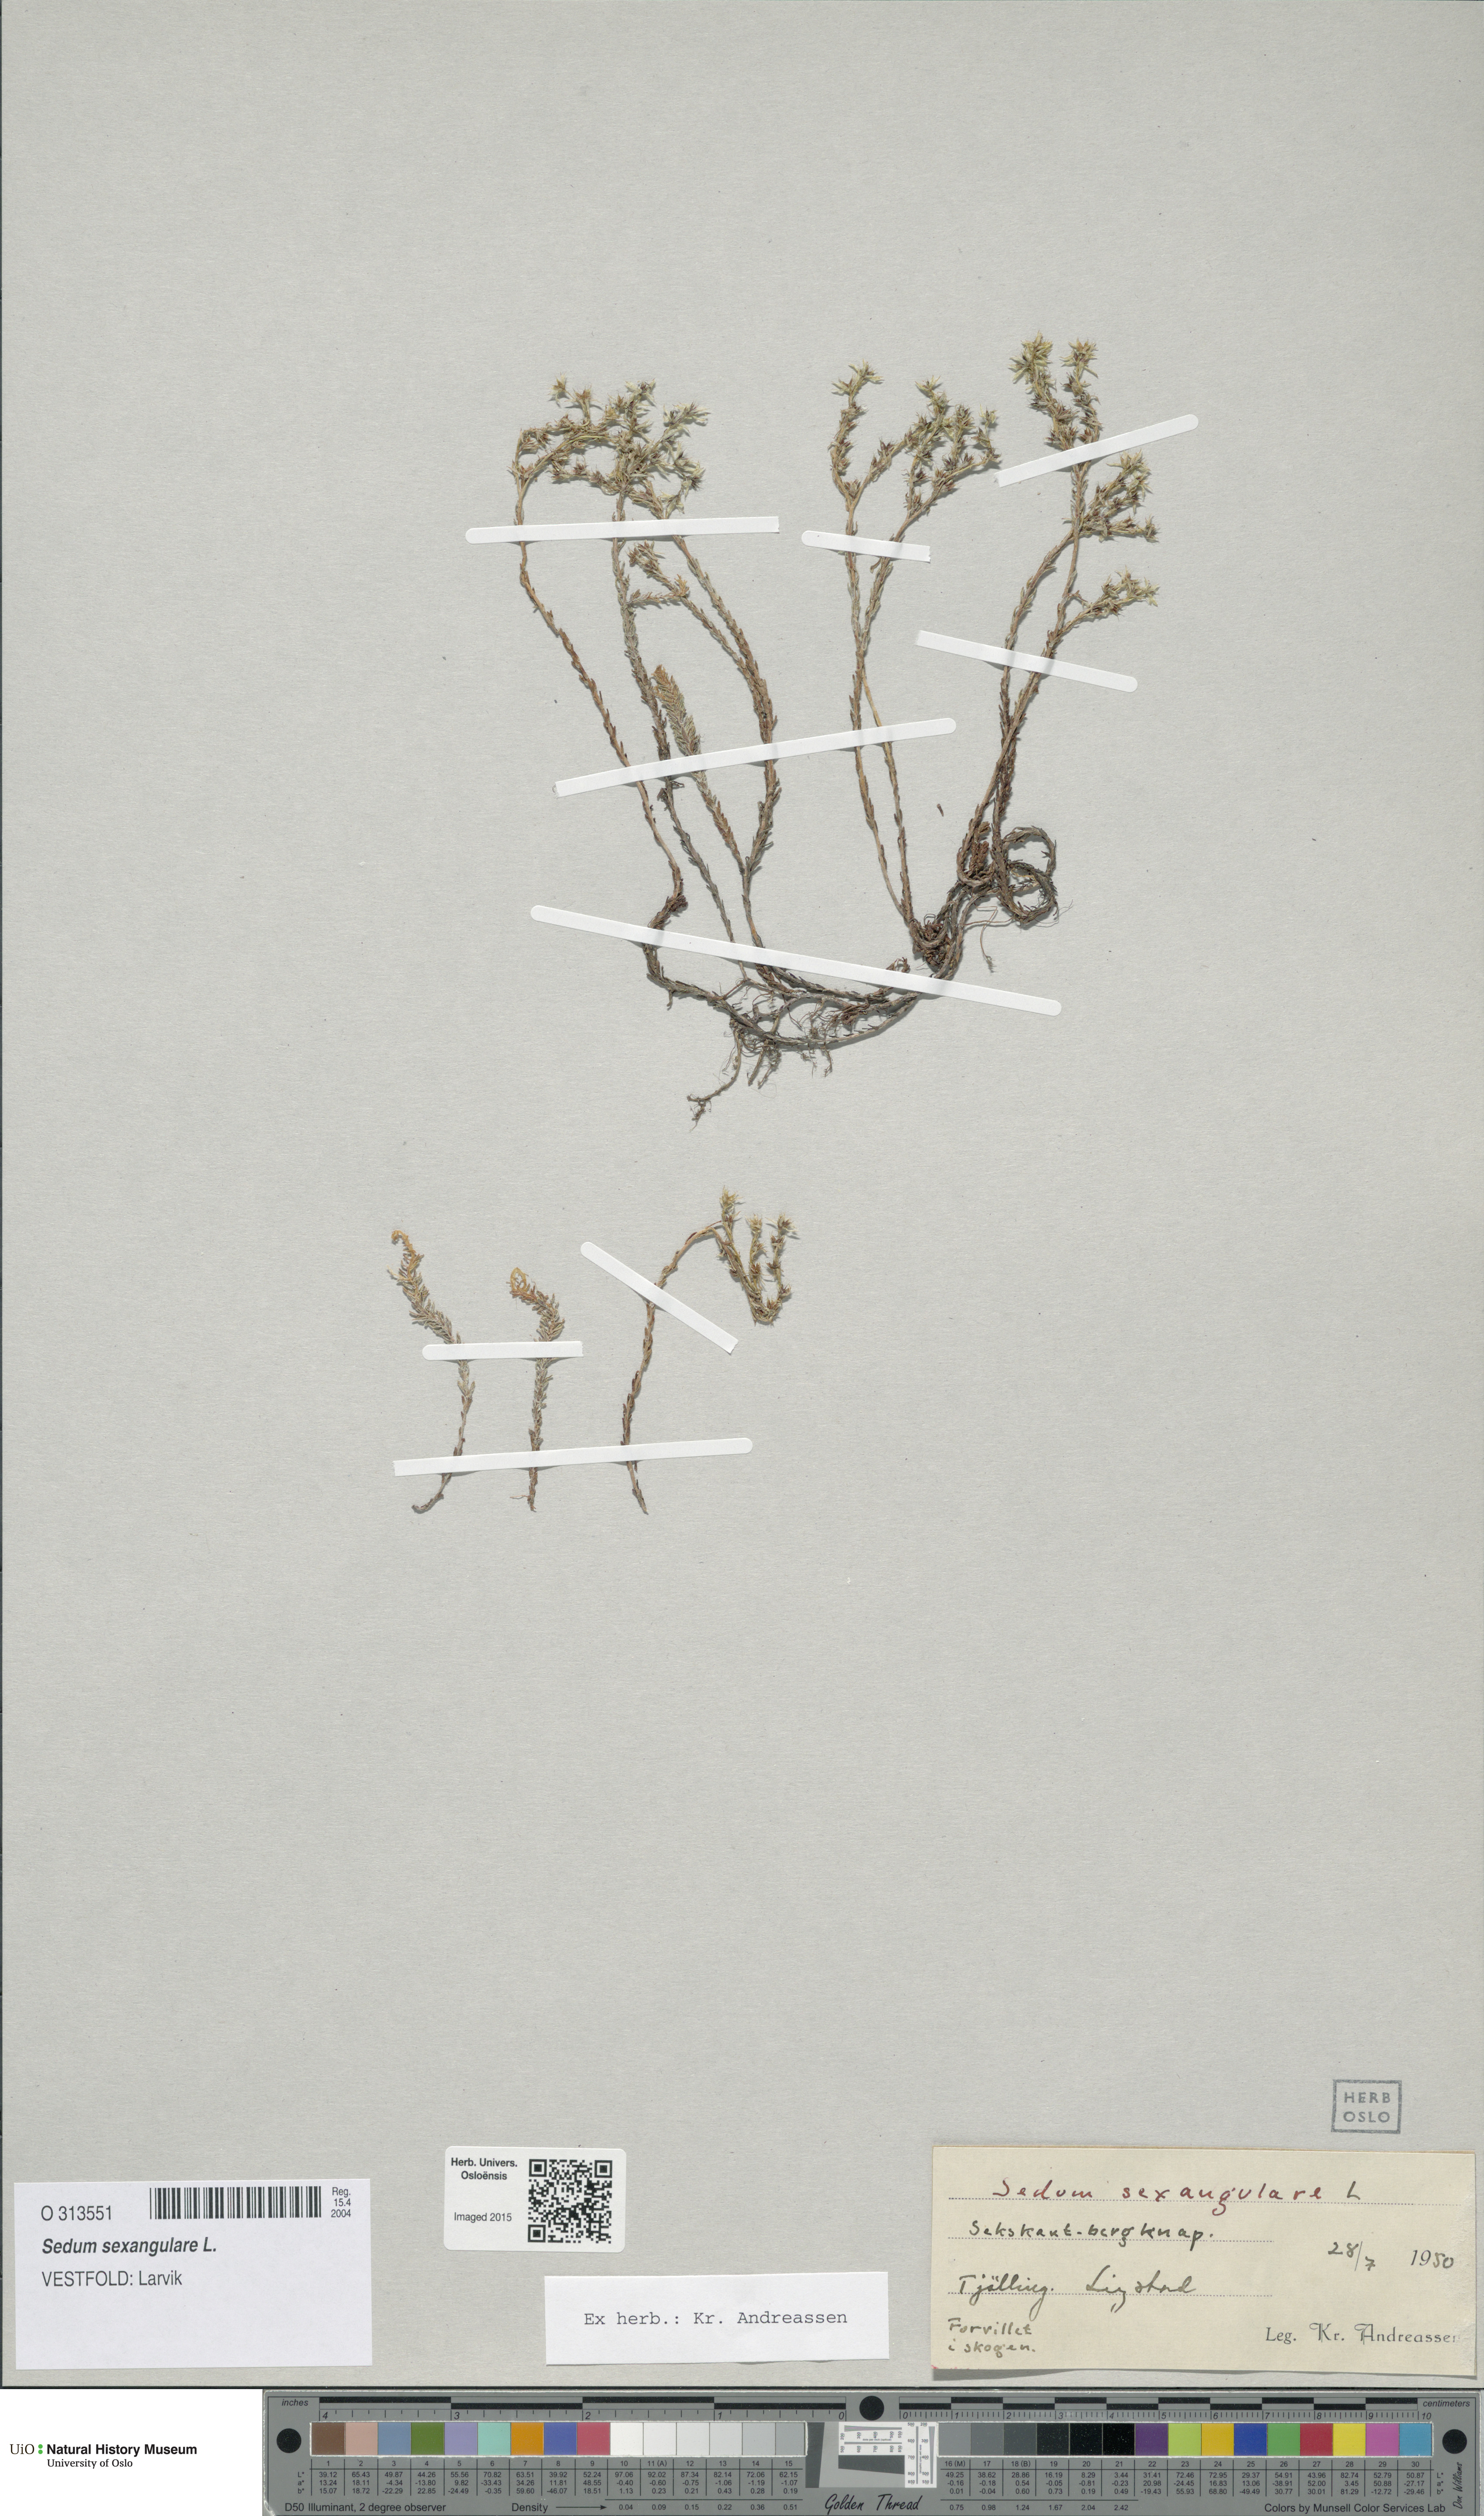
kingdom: Plantae
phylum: Tracheophyta
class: Magnoliopsida
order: Saxifragales
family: Crassulaceae
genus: Sedum
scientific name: Sedum sexangulare
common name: Tasteless stonecrop
